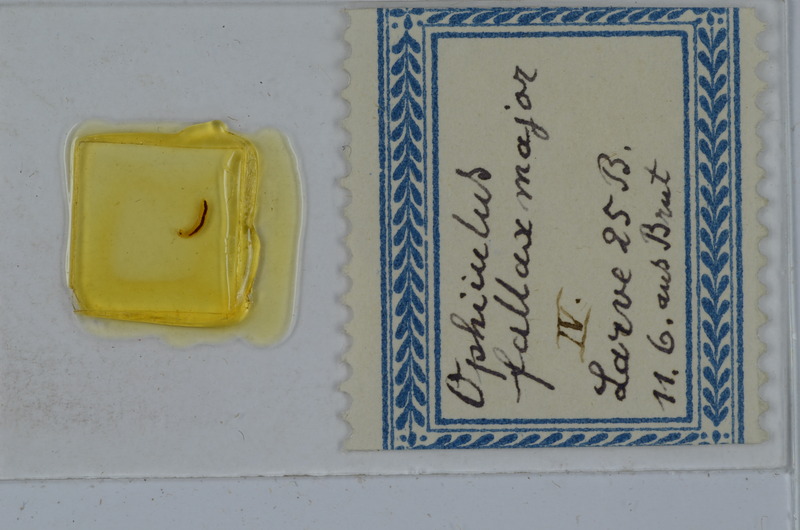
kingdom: Animalia
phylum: Arthropoda
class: Diplopoda
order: Julida
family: Julidae
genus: Ophyiulus
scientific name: Ophyiulus pilosus
